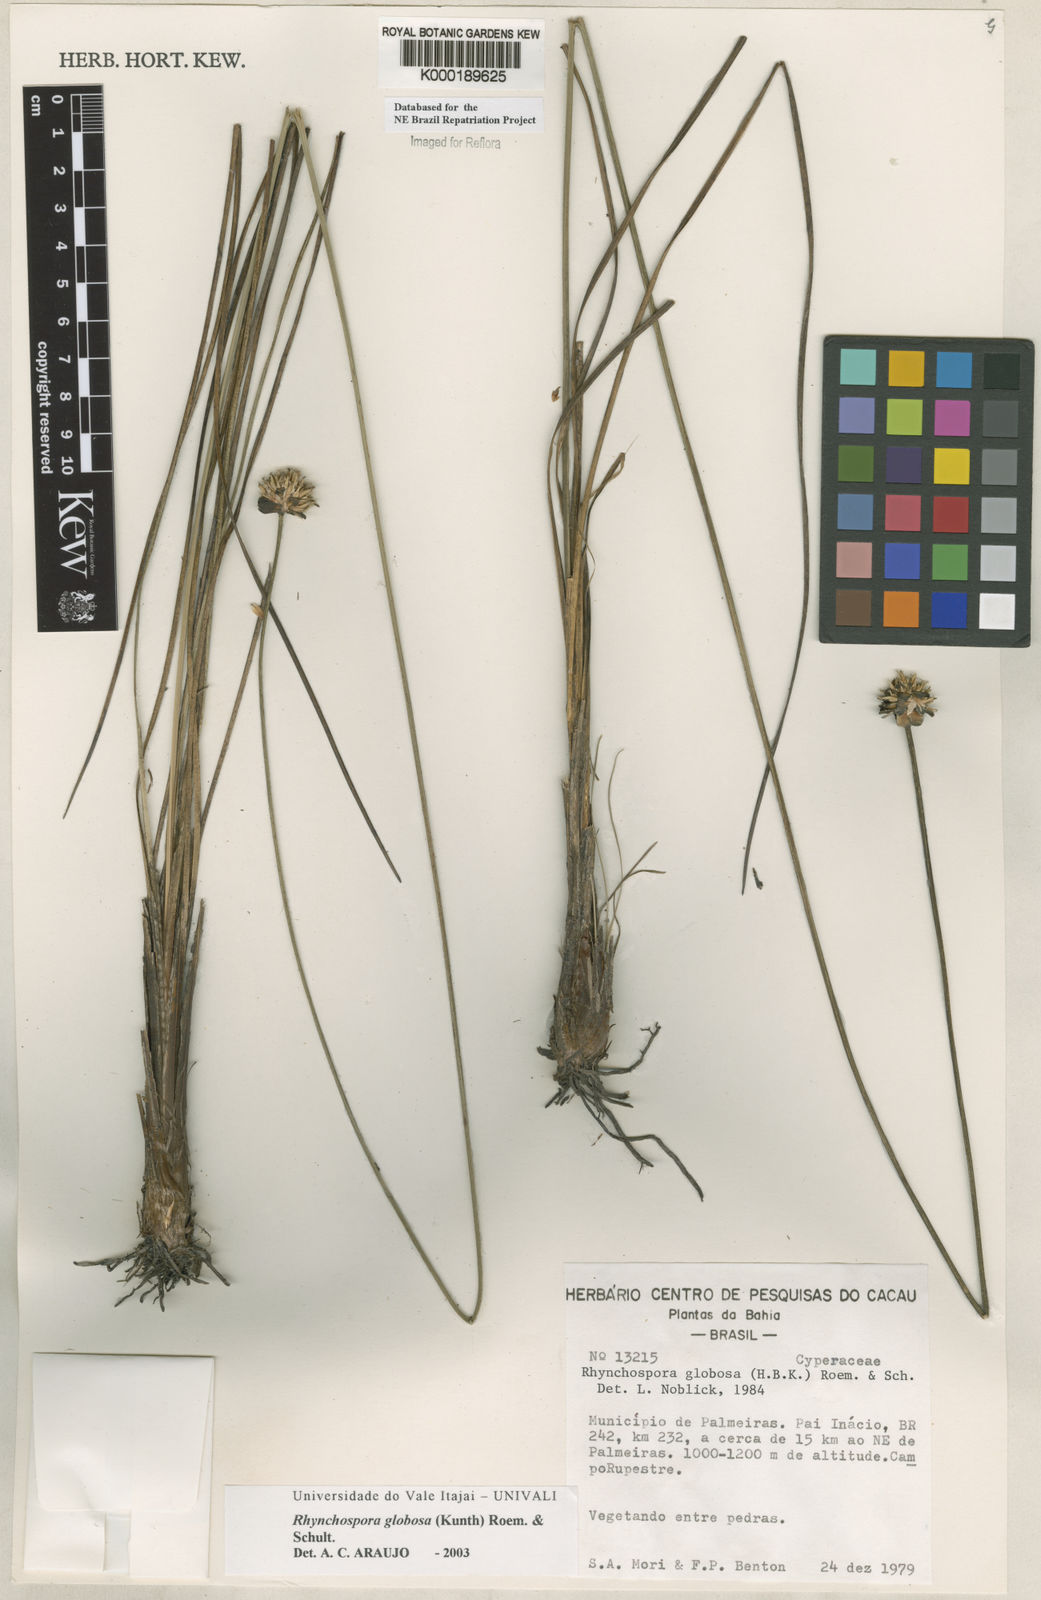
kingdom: Plantae
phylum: Tracheophyta
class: Liliopsida
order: Poales
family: Cyperaceae
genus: Rhynchospora
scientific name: Rhynchospora globosa
